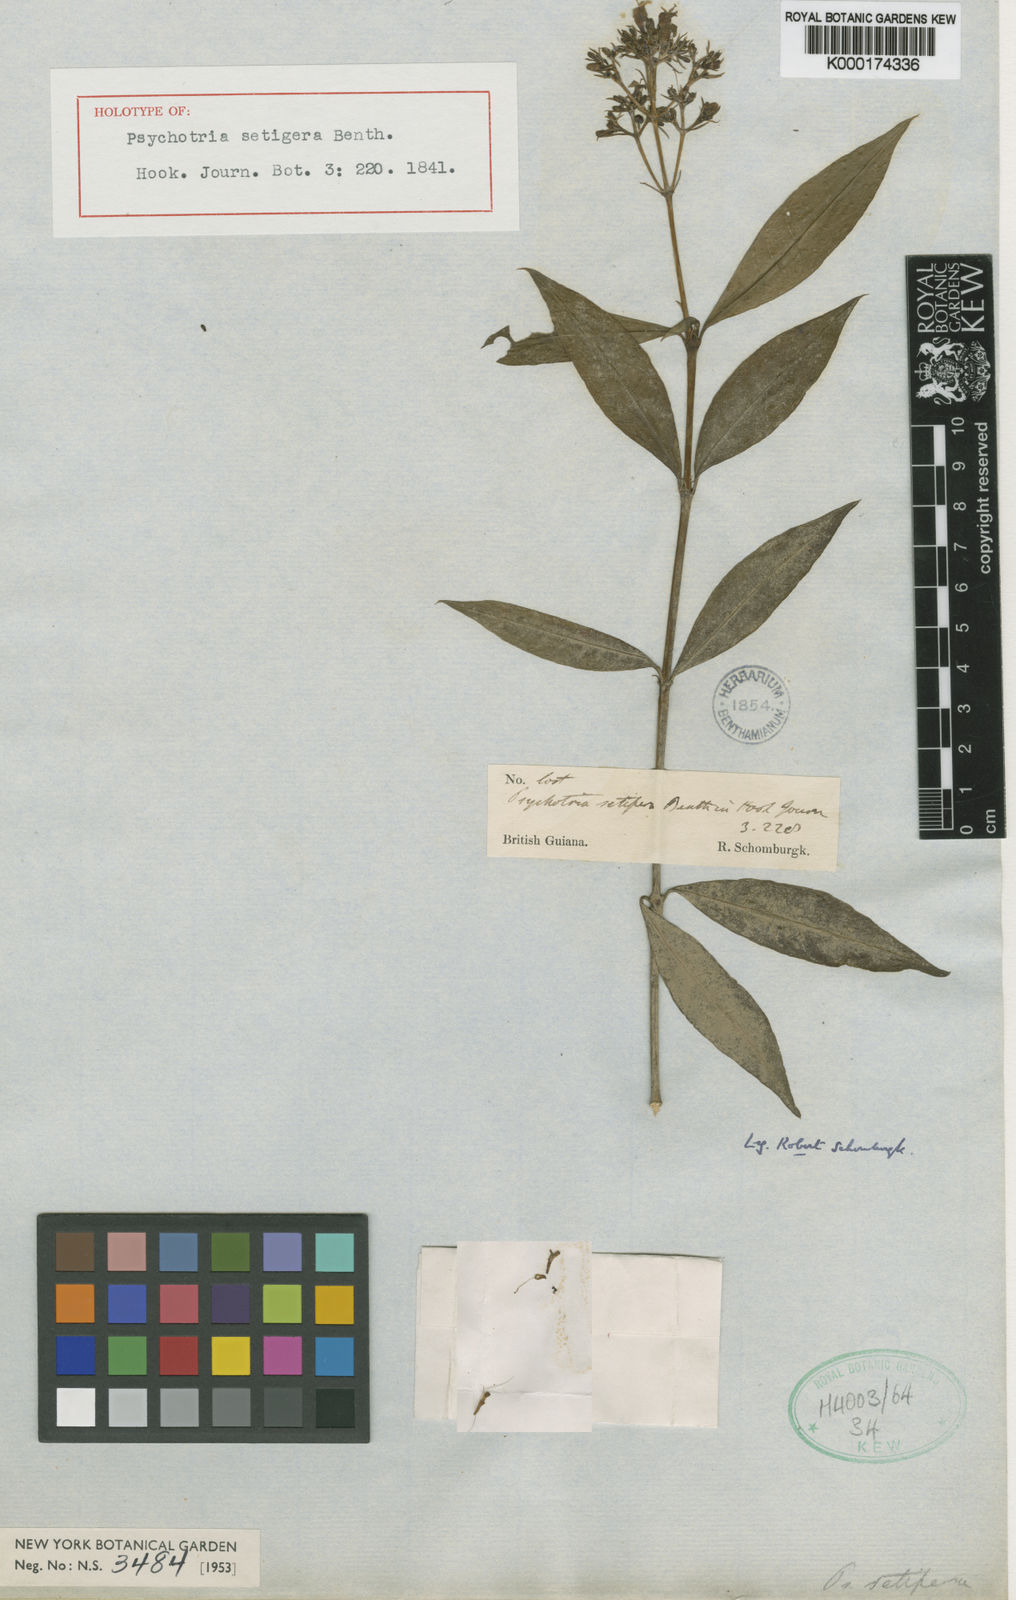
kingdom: Plantae
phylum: Tracheophyta
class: Magnoliopsida
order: Gentianales
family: Rubiaceae
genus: Palicourea
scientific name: Palicourea violacea
